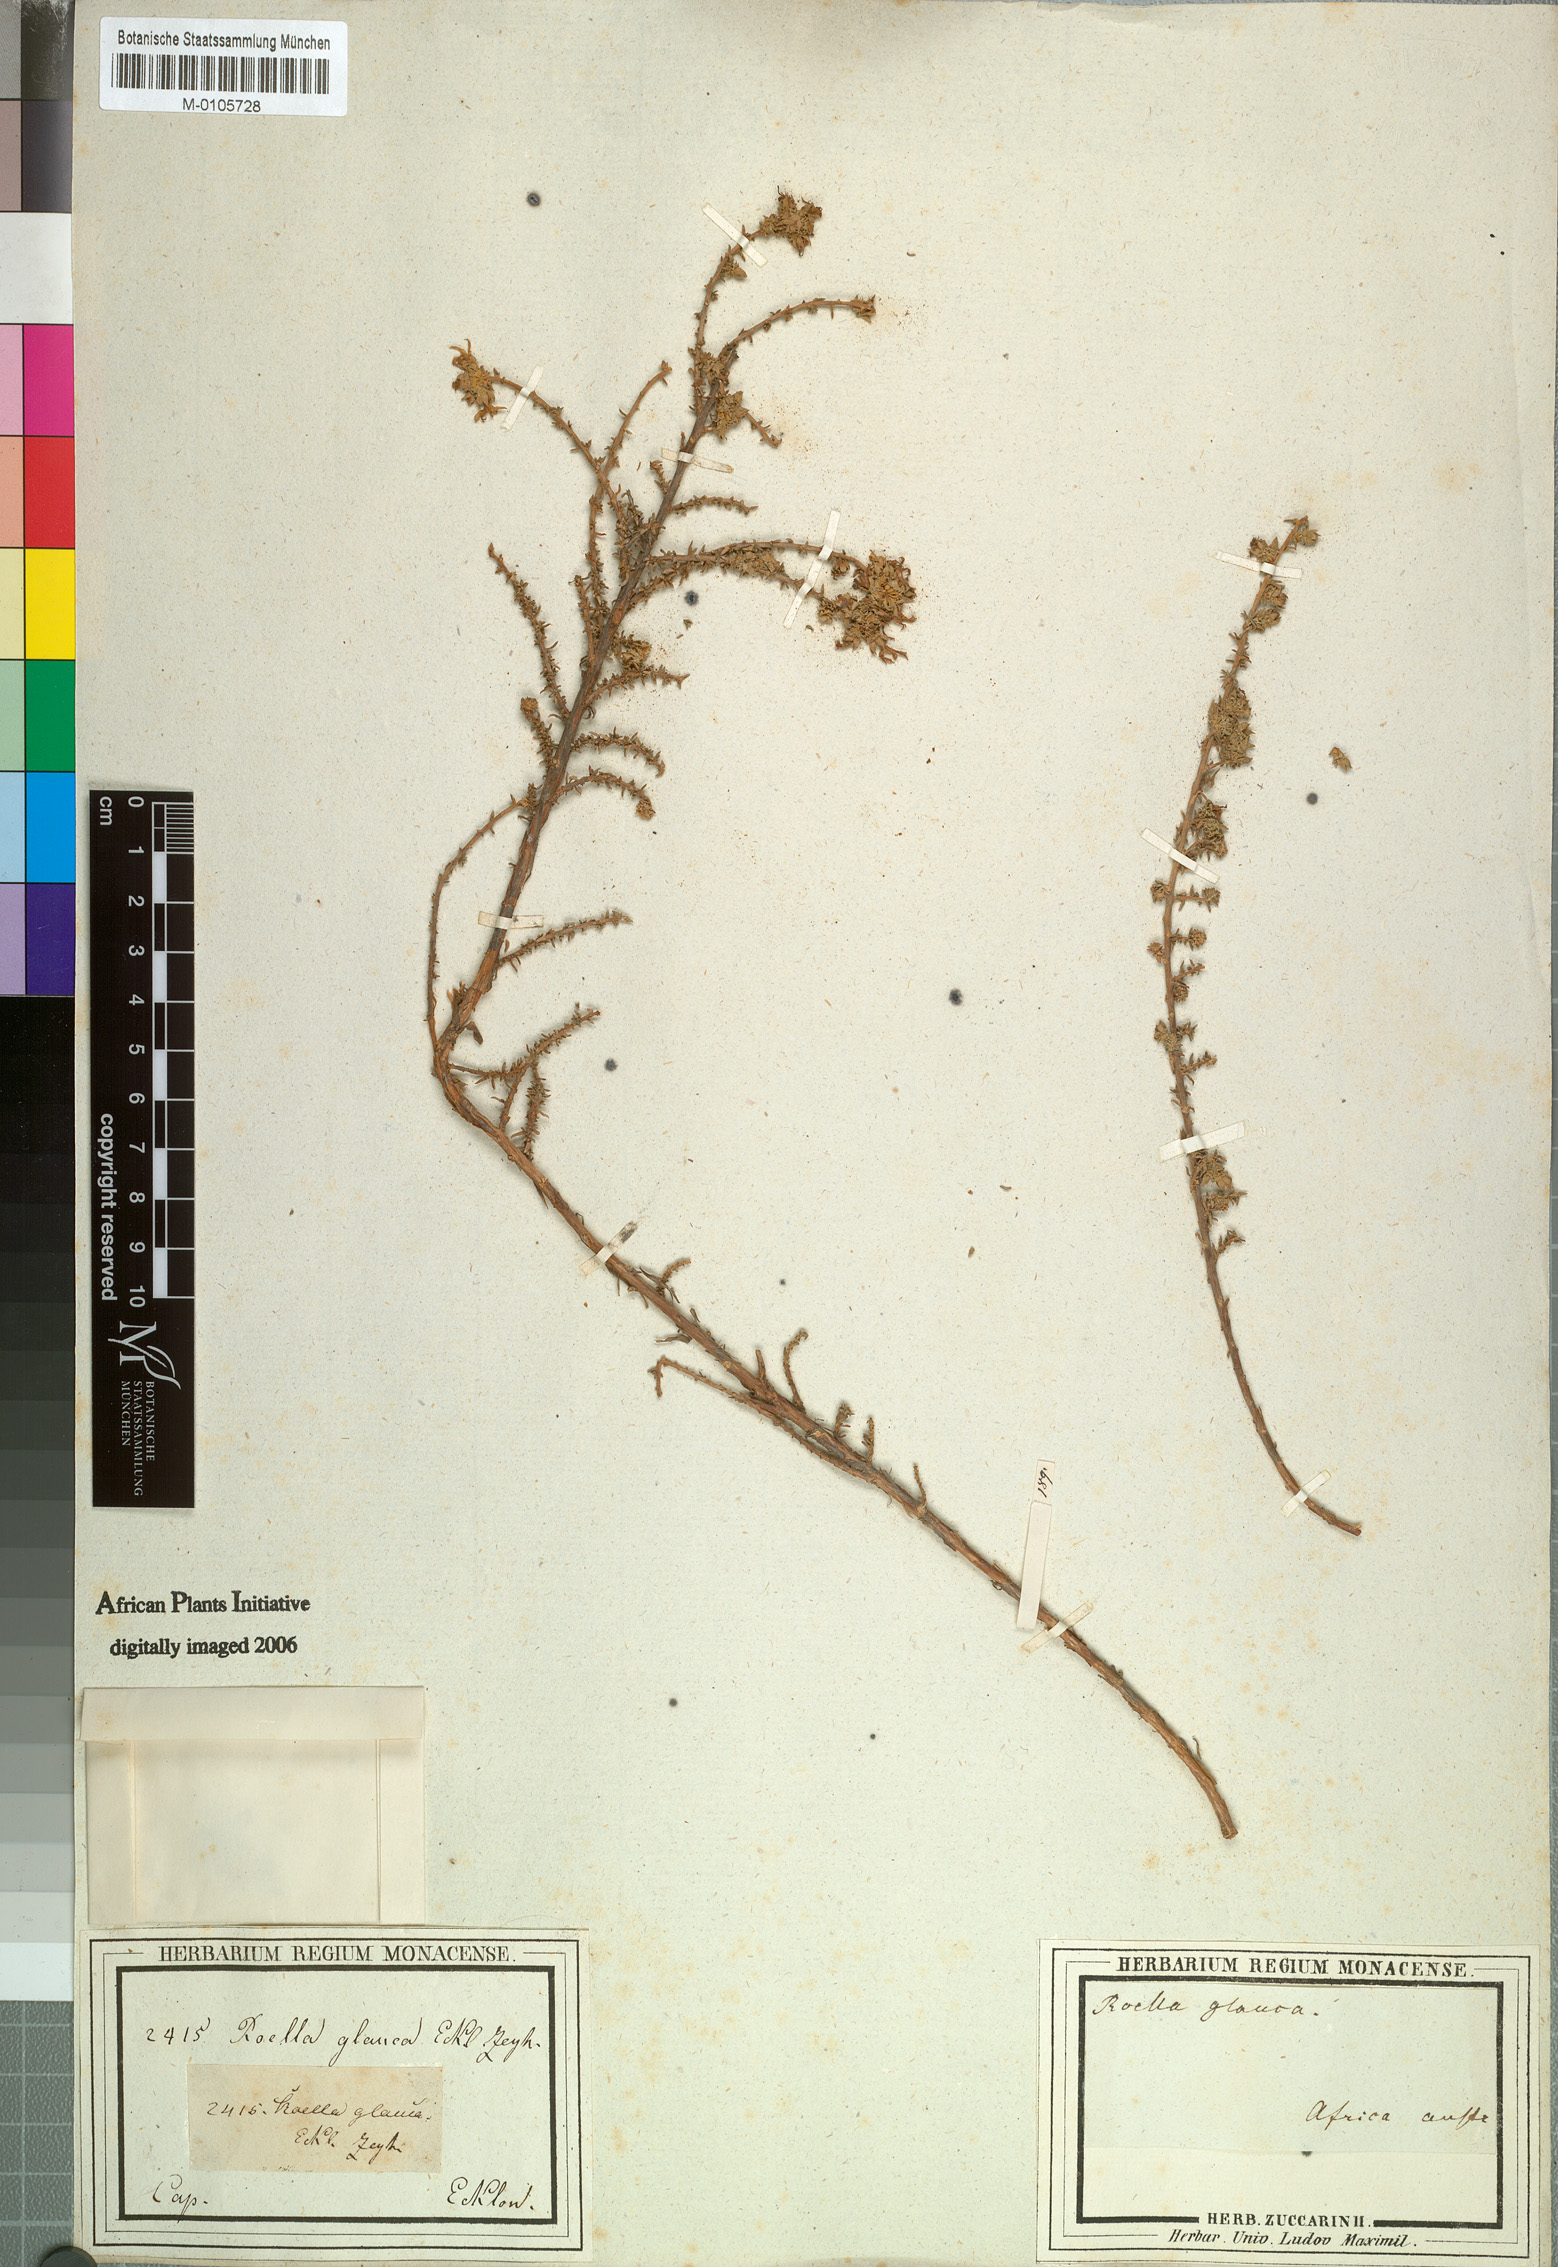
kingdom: Plantae
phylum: Tracheophyta
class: Magnoliopsida
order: Asterales
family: Campanulaceae
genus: Roella
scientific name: Roella secunda
